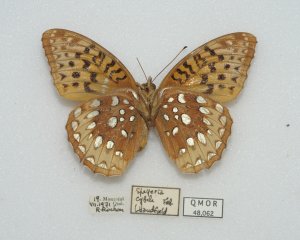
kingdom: Animalia
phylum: Arthropoda
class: Insecta
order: Lepidoptera
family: Nymphalidae
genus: Speyeria
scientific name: Speyeria cybele
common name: Great Spangled Fritillary
